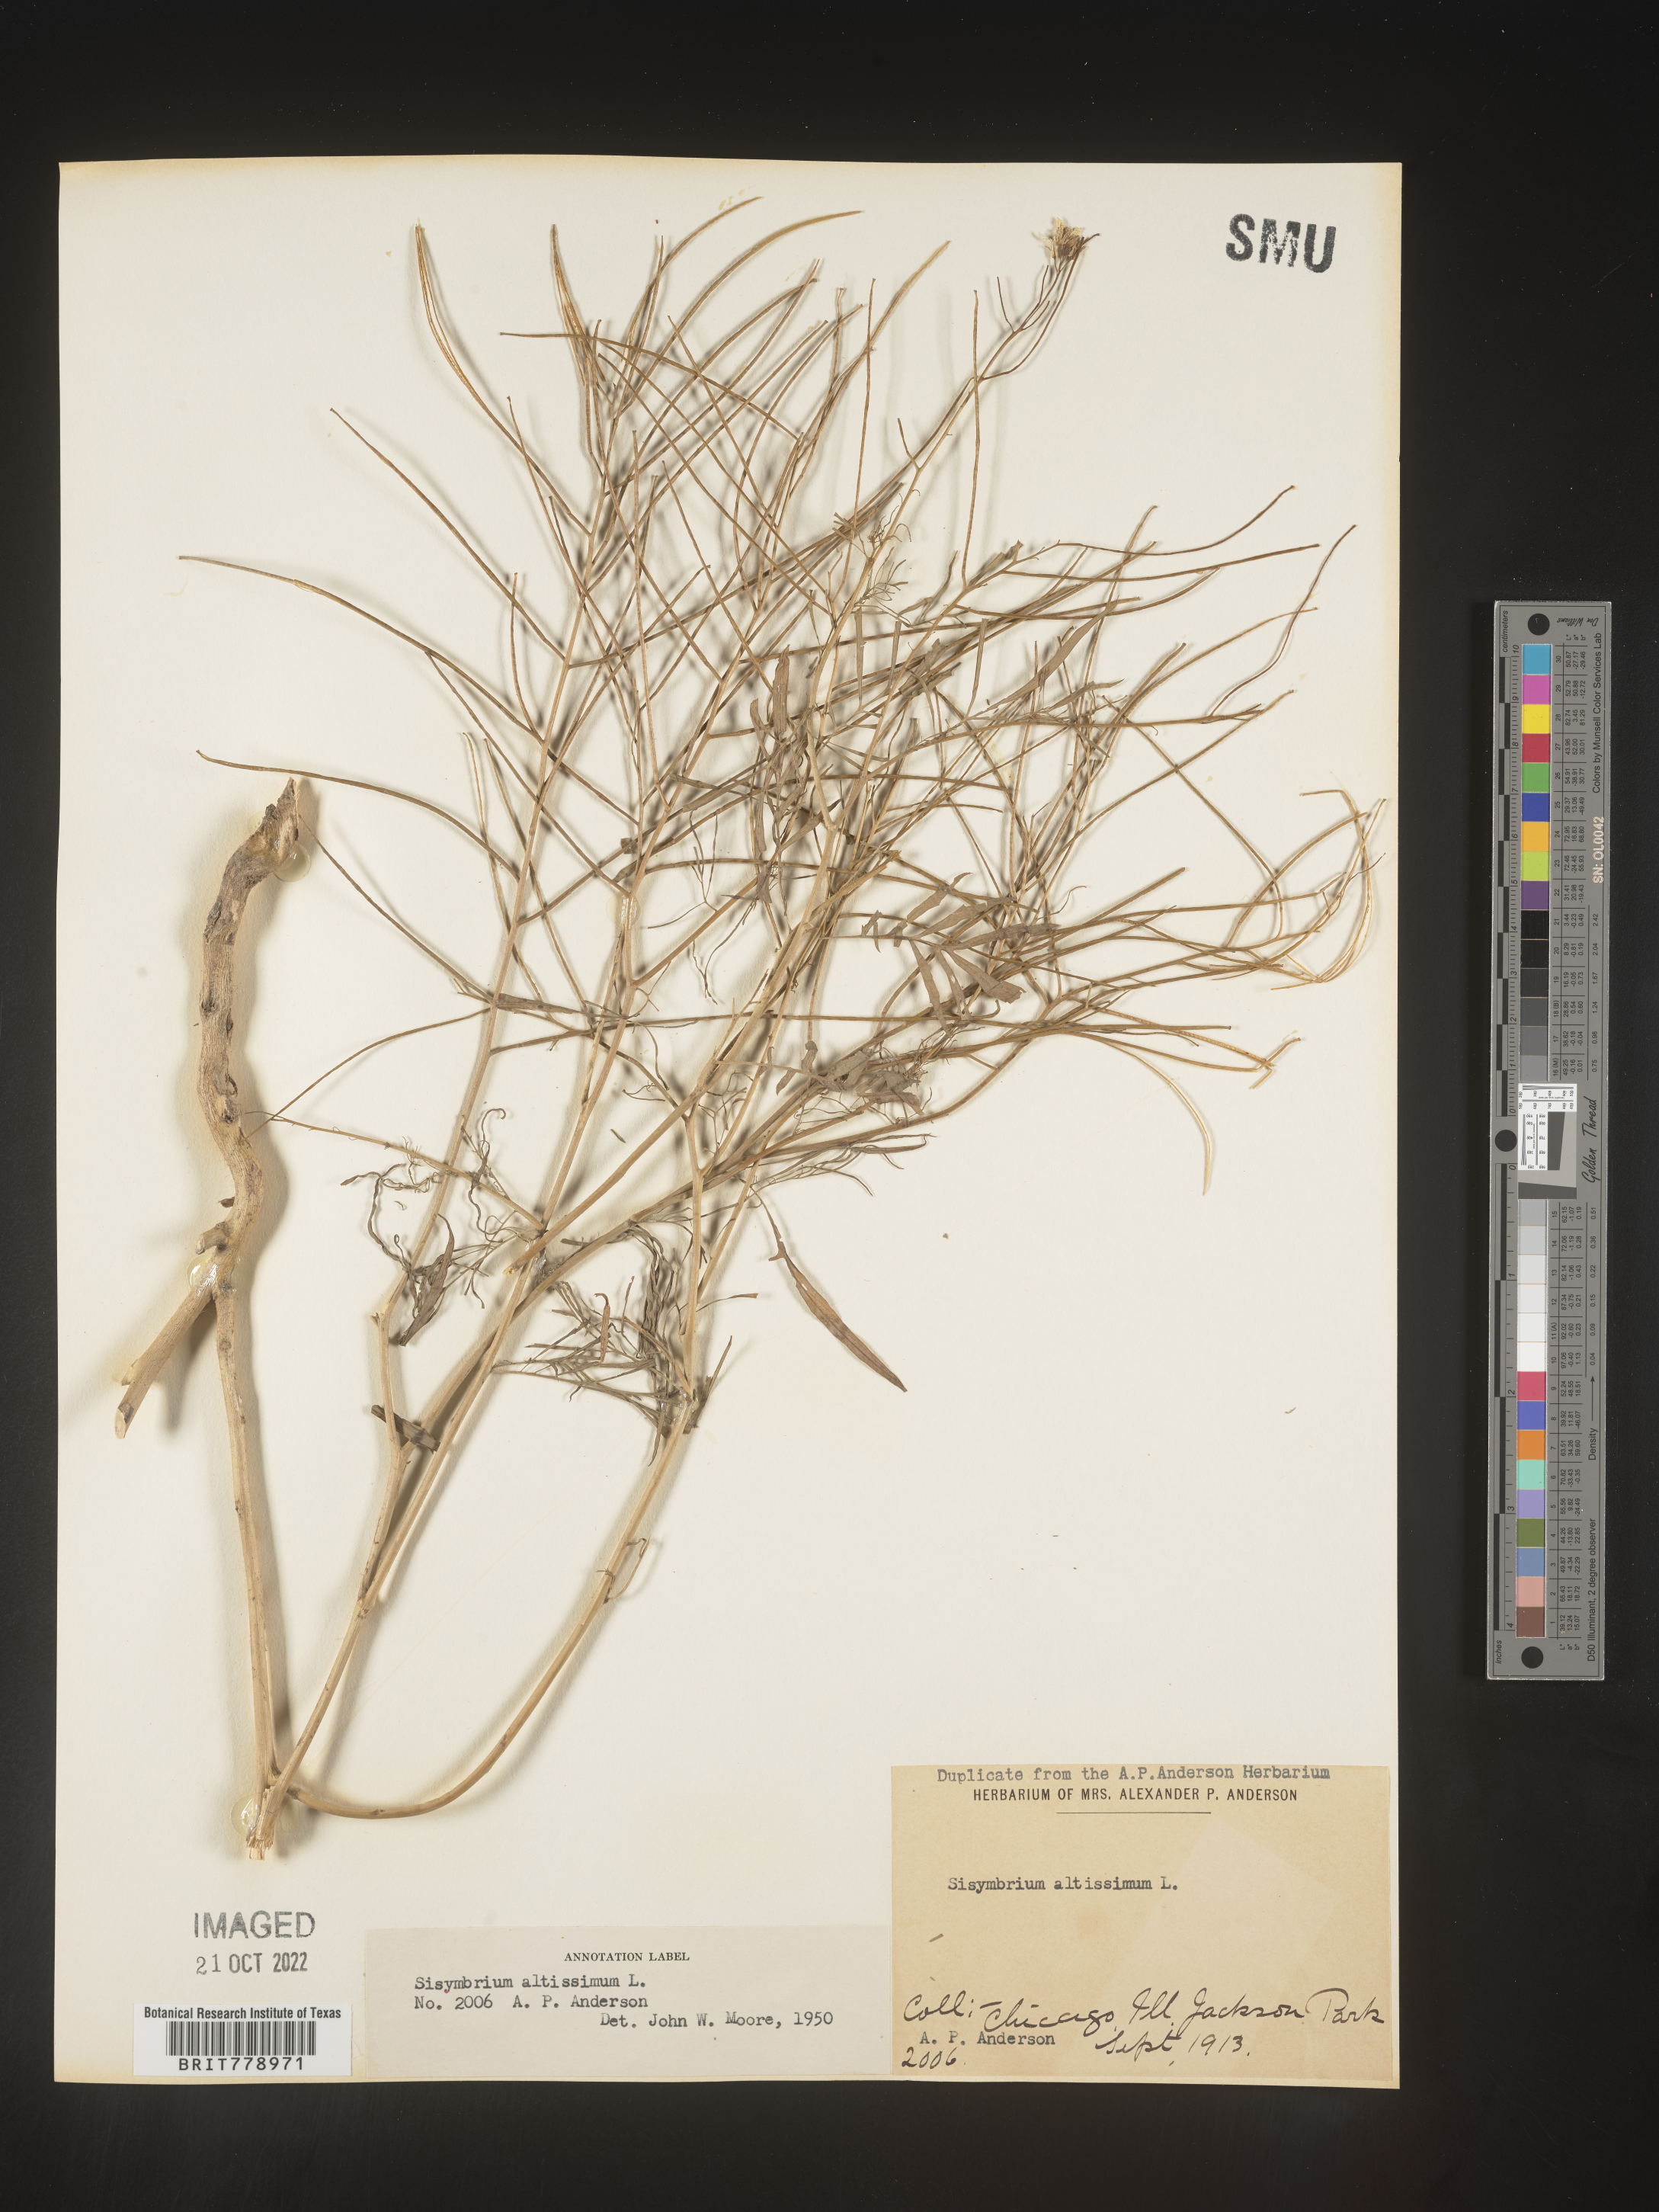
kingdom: Plantae
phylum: Tracheophyta
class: Magnoliopsida
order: Brassicales
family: Brassicaceae
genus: Sisymbrium
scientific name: Sisymbrium altissimum
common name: Tall rocket
